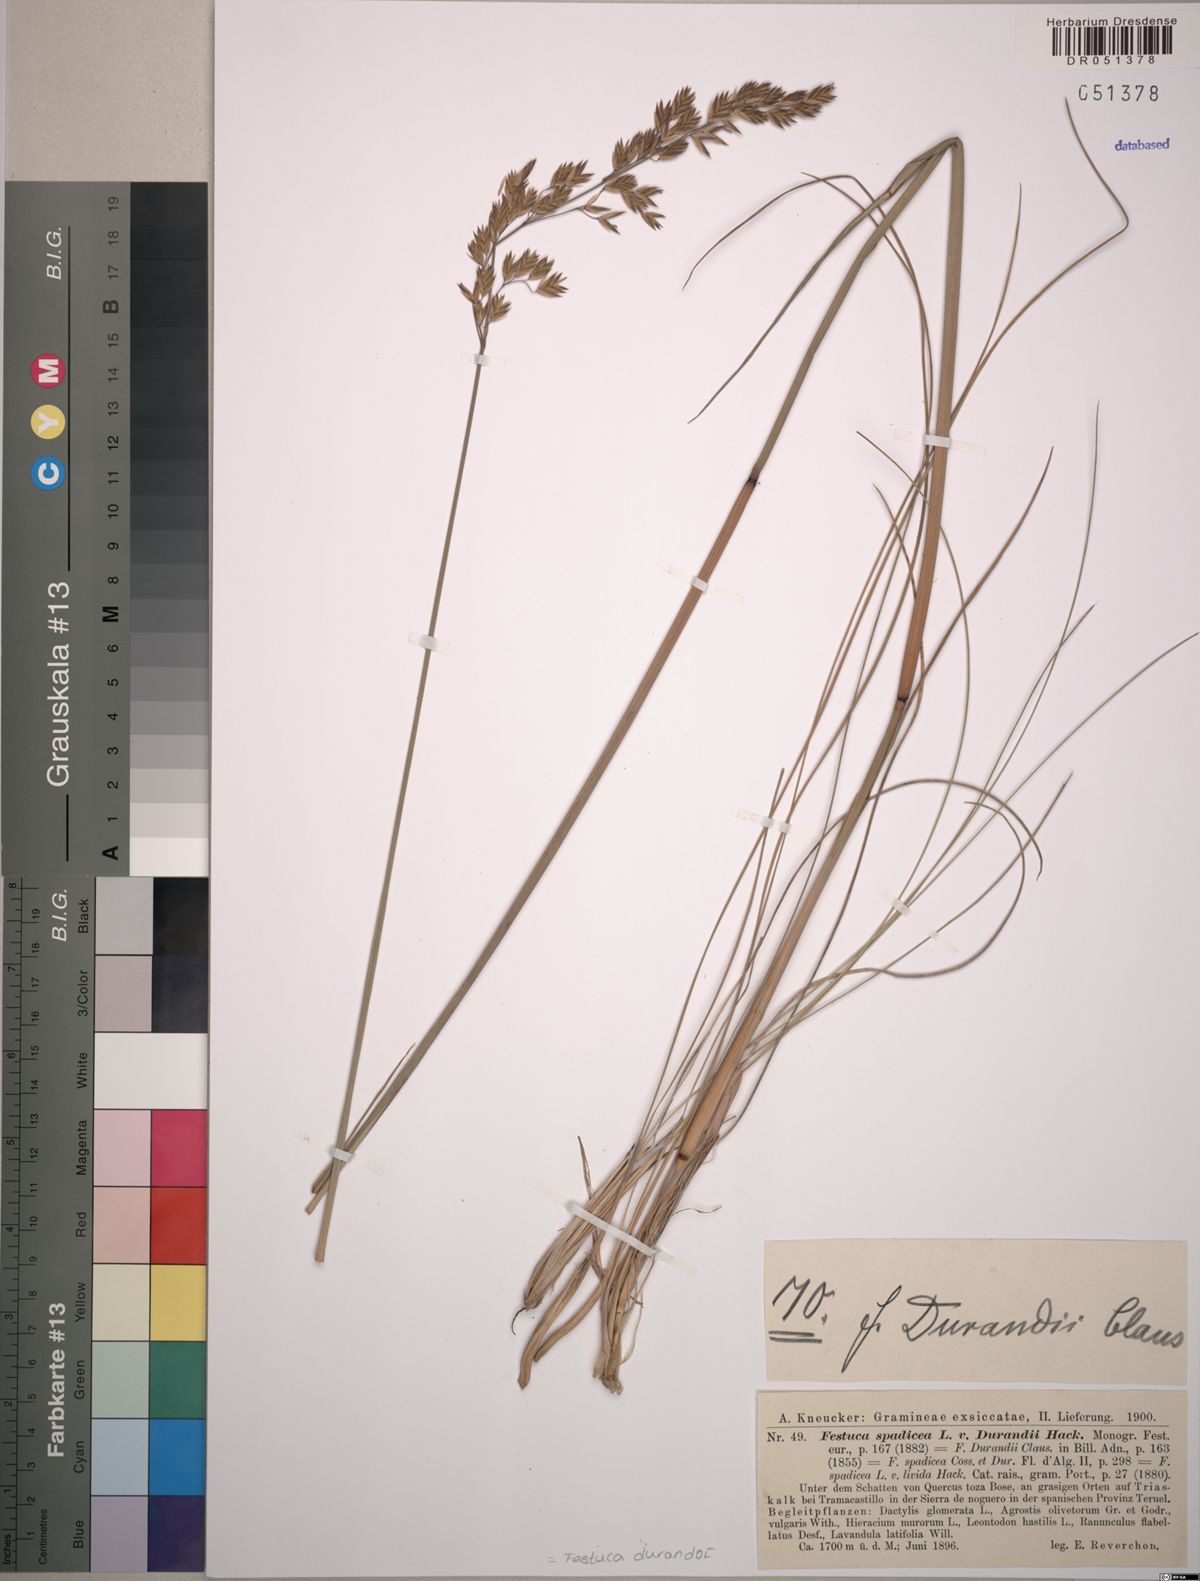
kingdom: Plantae
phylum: Tracheophyta
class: Liliopsida
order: Poales
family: Poaceae
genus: Patzkea
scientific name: Patzkea durandoi
